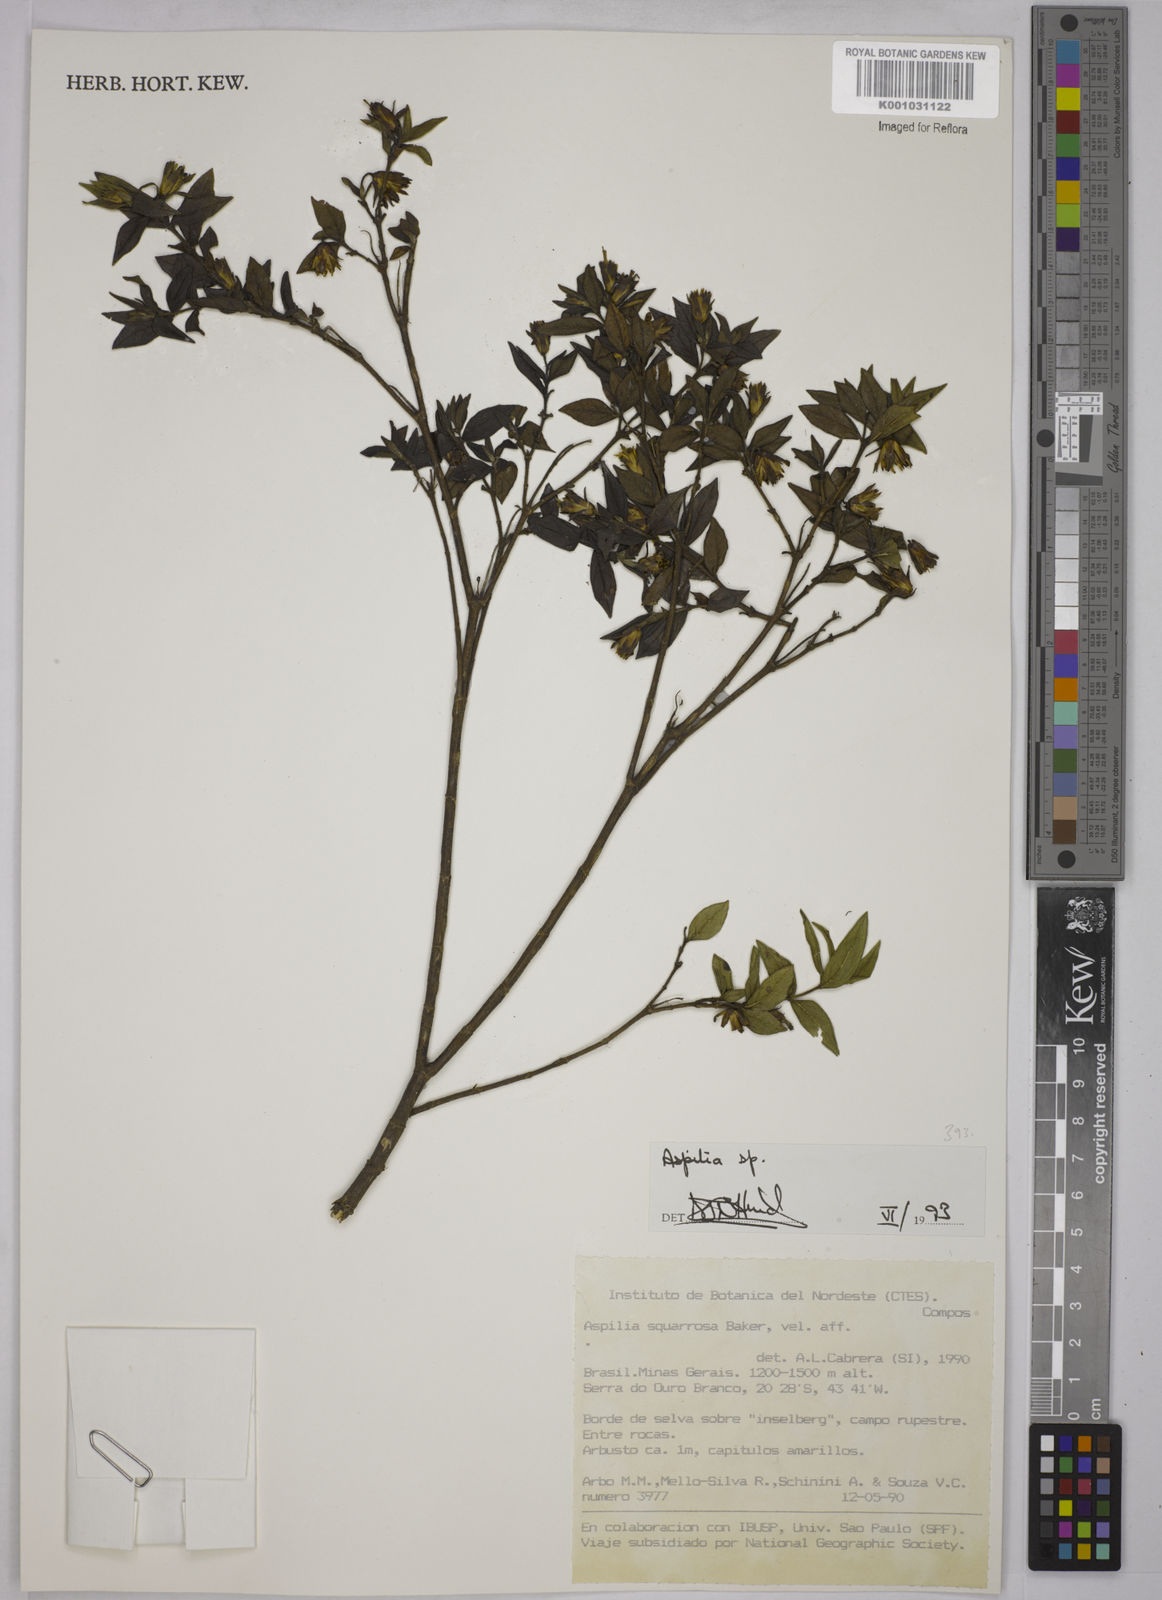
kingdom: Plantae
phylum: Tracheophyta
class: Magnoliopsida
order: Asterales
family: Asteraceae
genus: Aspilia
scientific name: Aspilia
